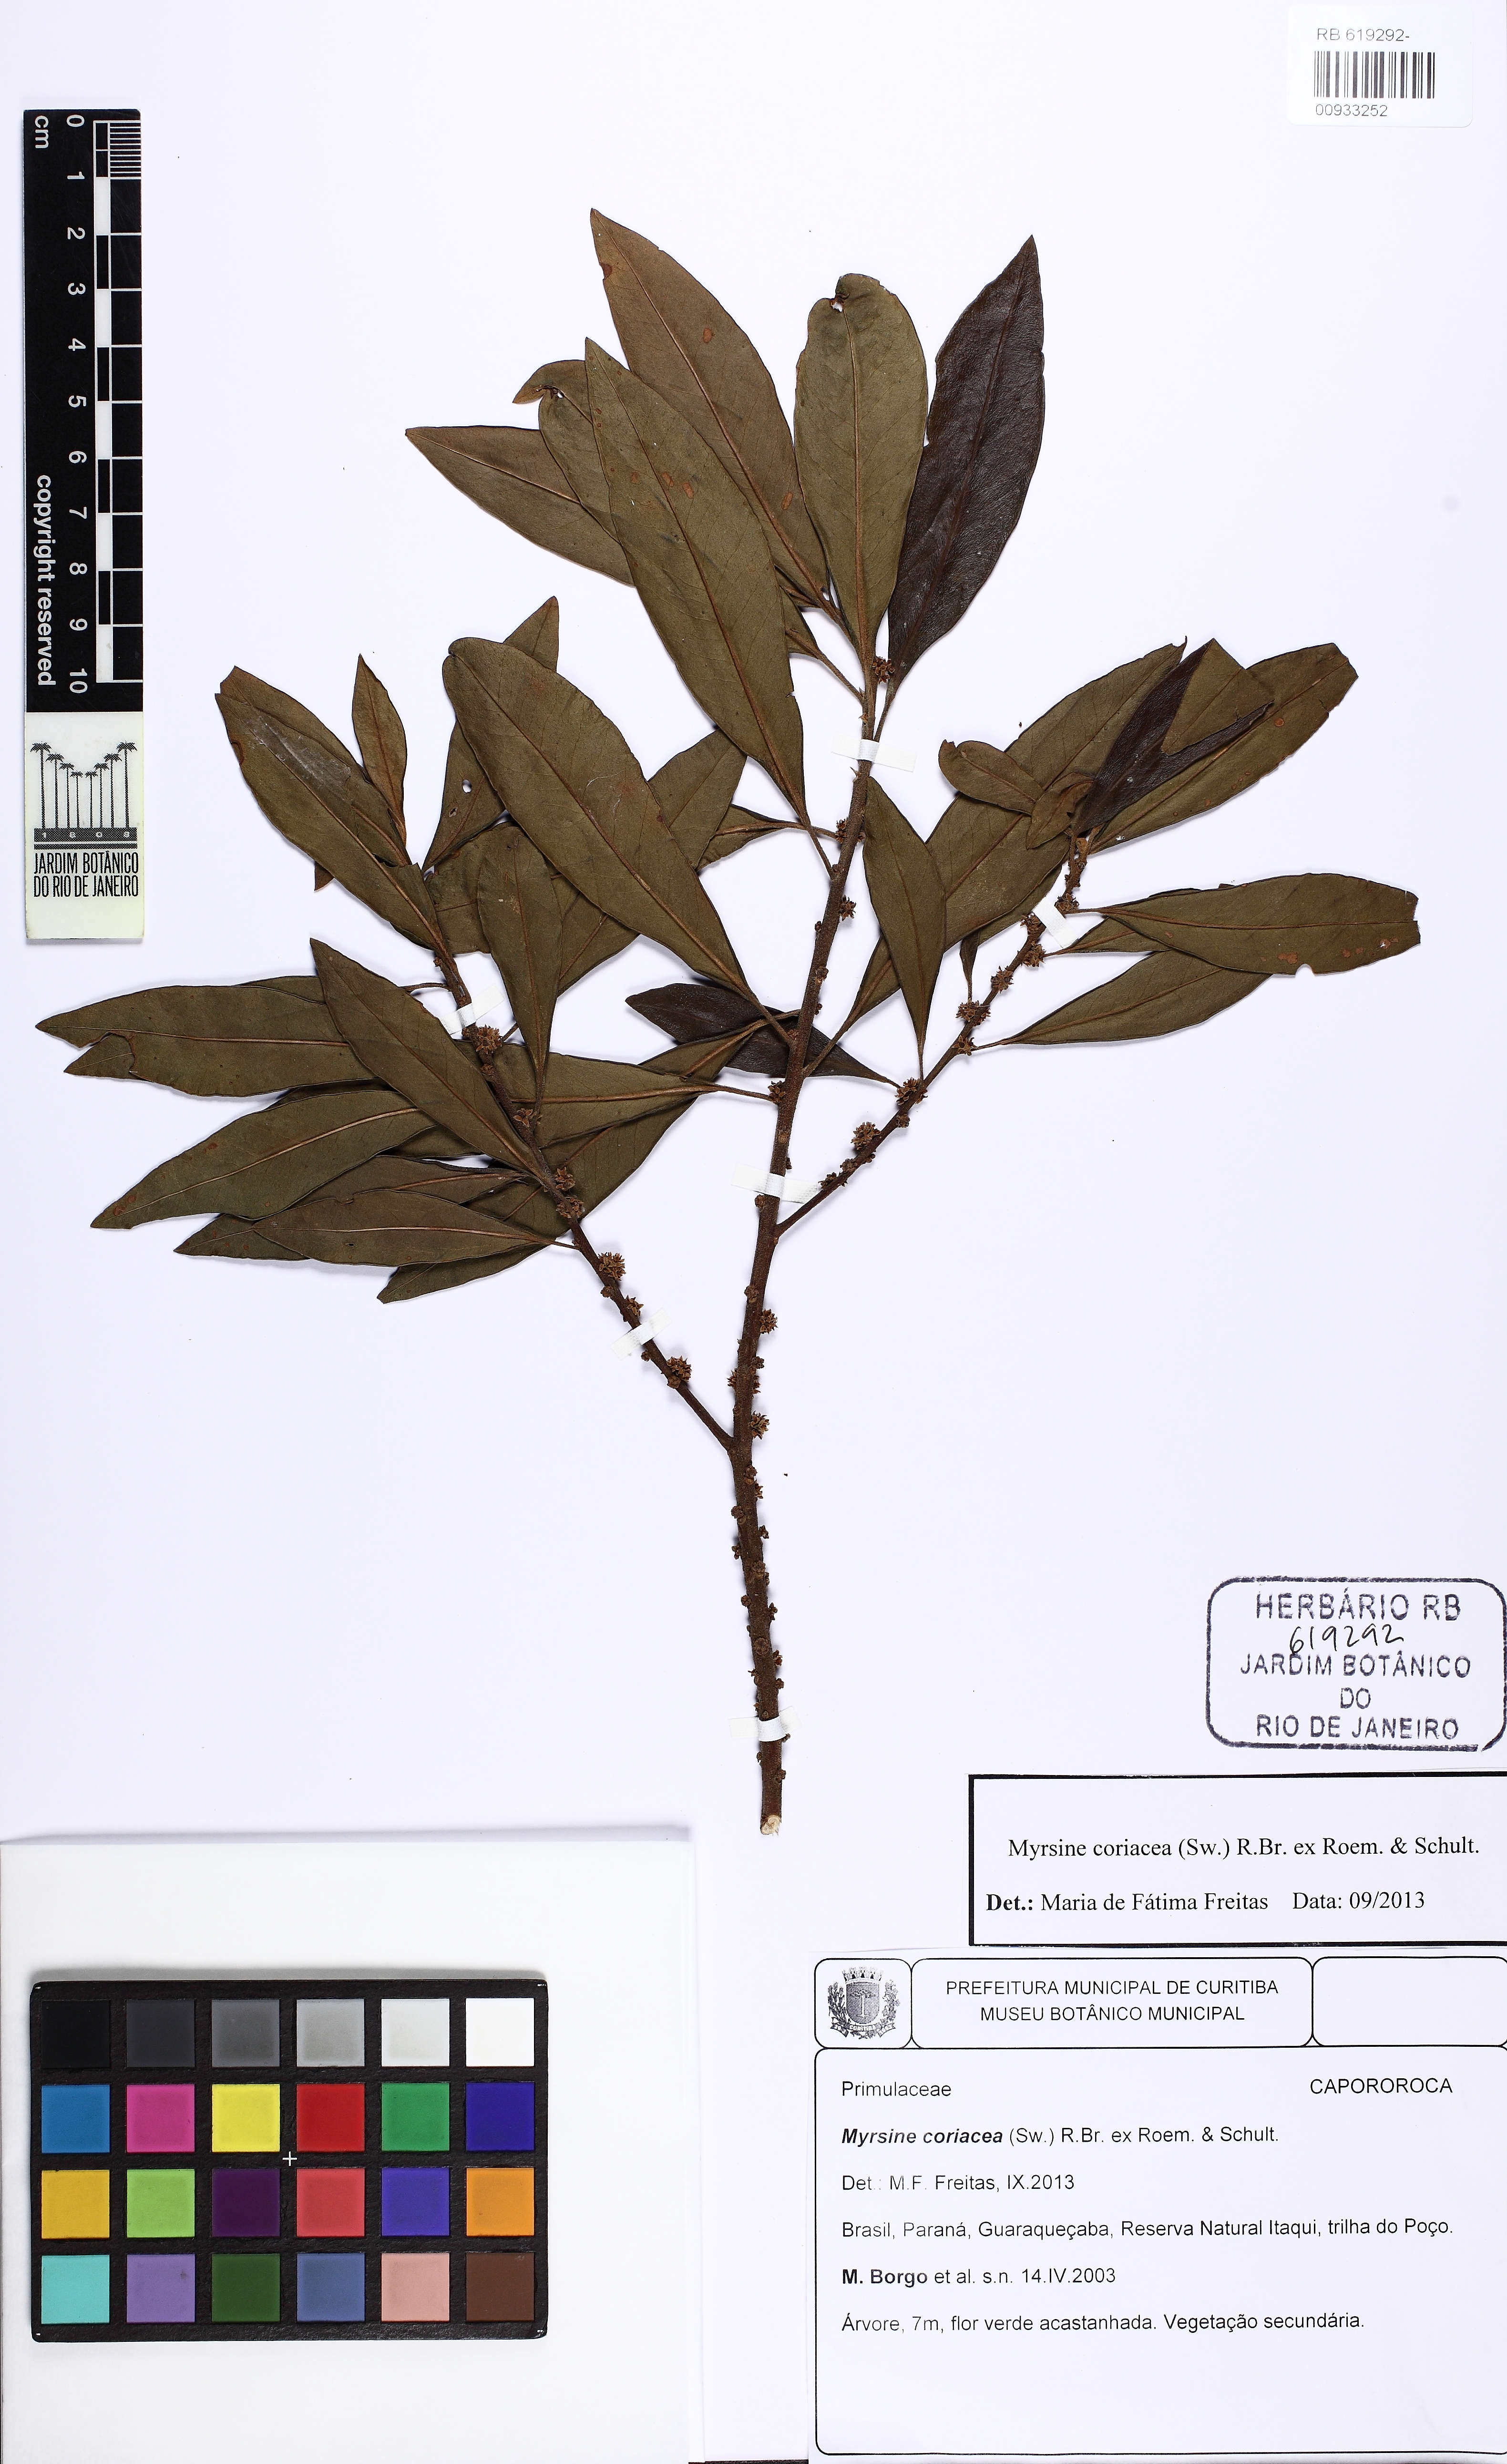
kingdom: Plantae
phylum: Tracheophyta
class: Magnoliopsida
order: Ericales
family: Primulaceae
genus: Myrsine
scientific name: Myrsine coriacea
